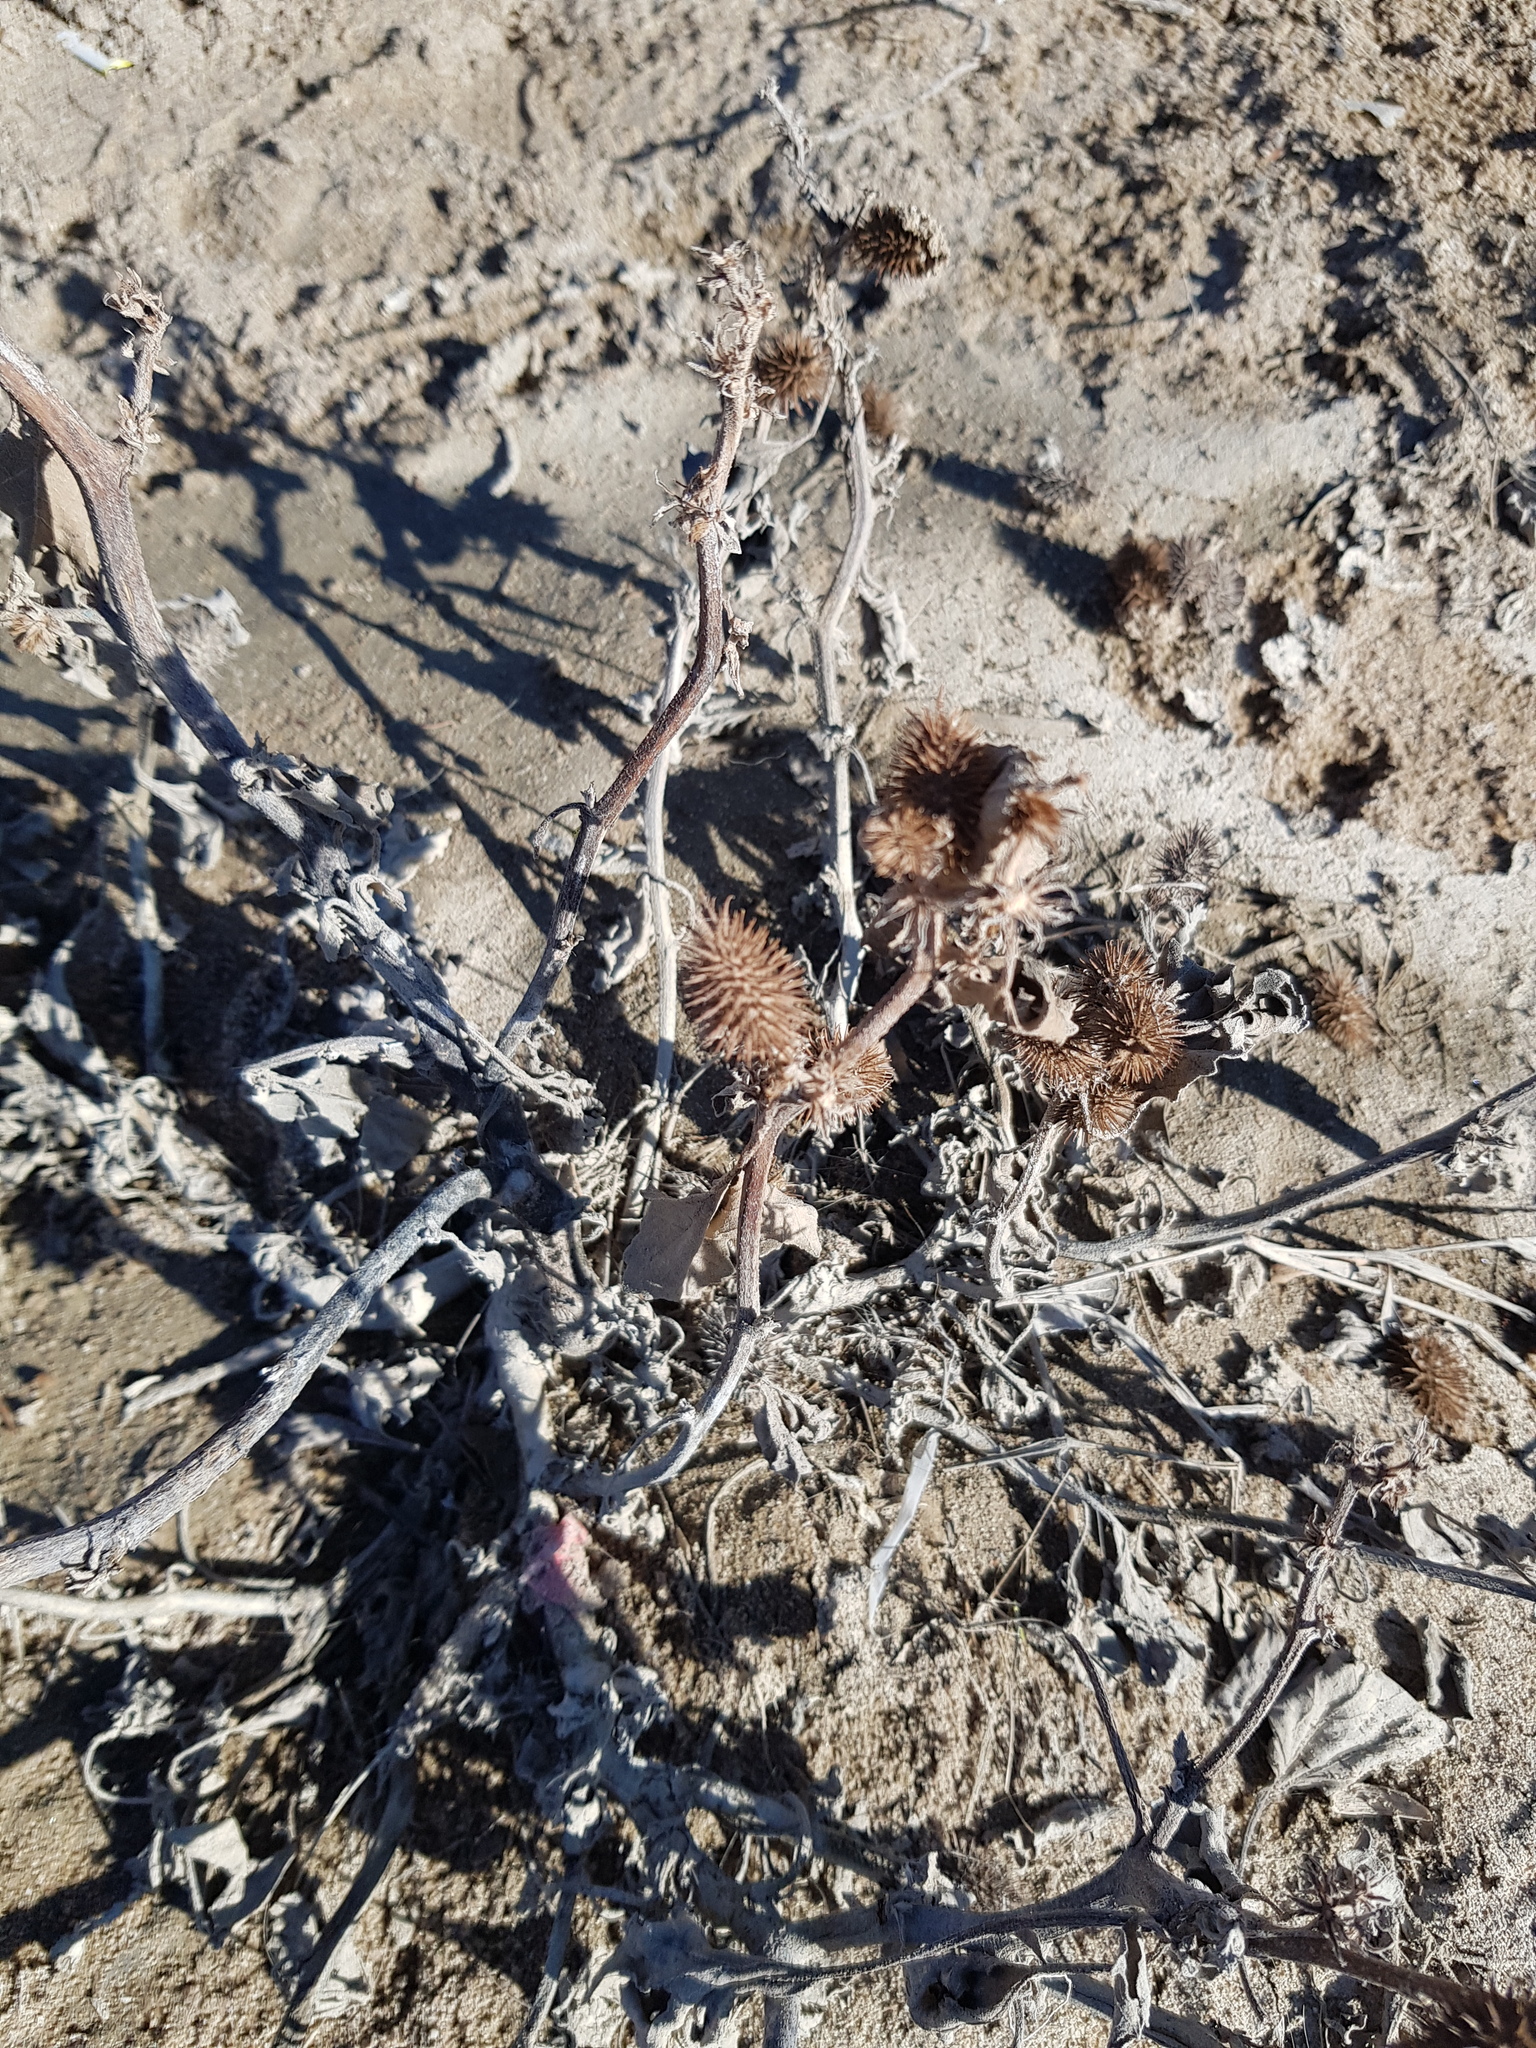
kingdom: Plantae
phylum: Tracheophyta
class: Magnoliopsida
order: Asterales
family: Asteraceae
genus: Xanthium
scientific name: Xanthium orientale
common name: Californian burr
